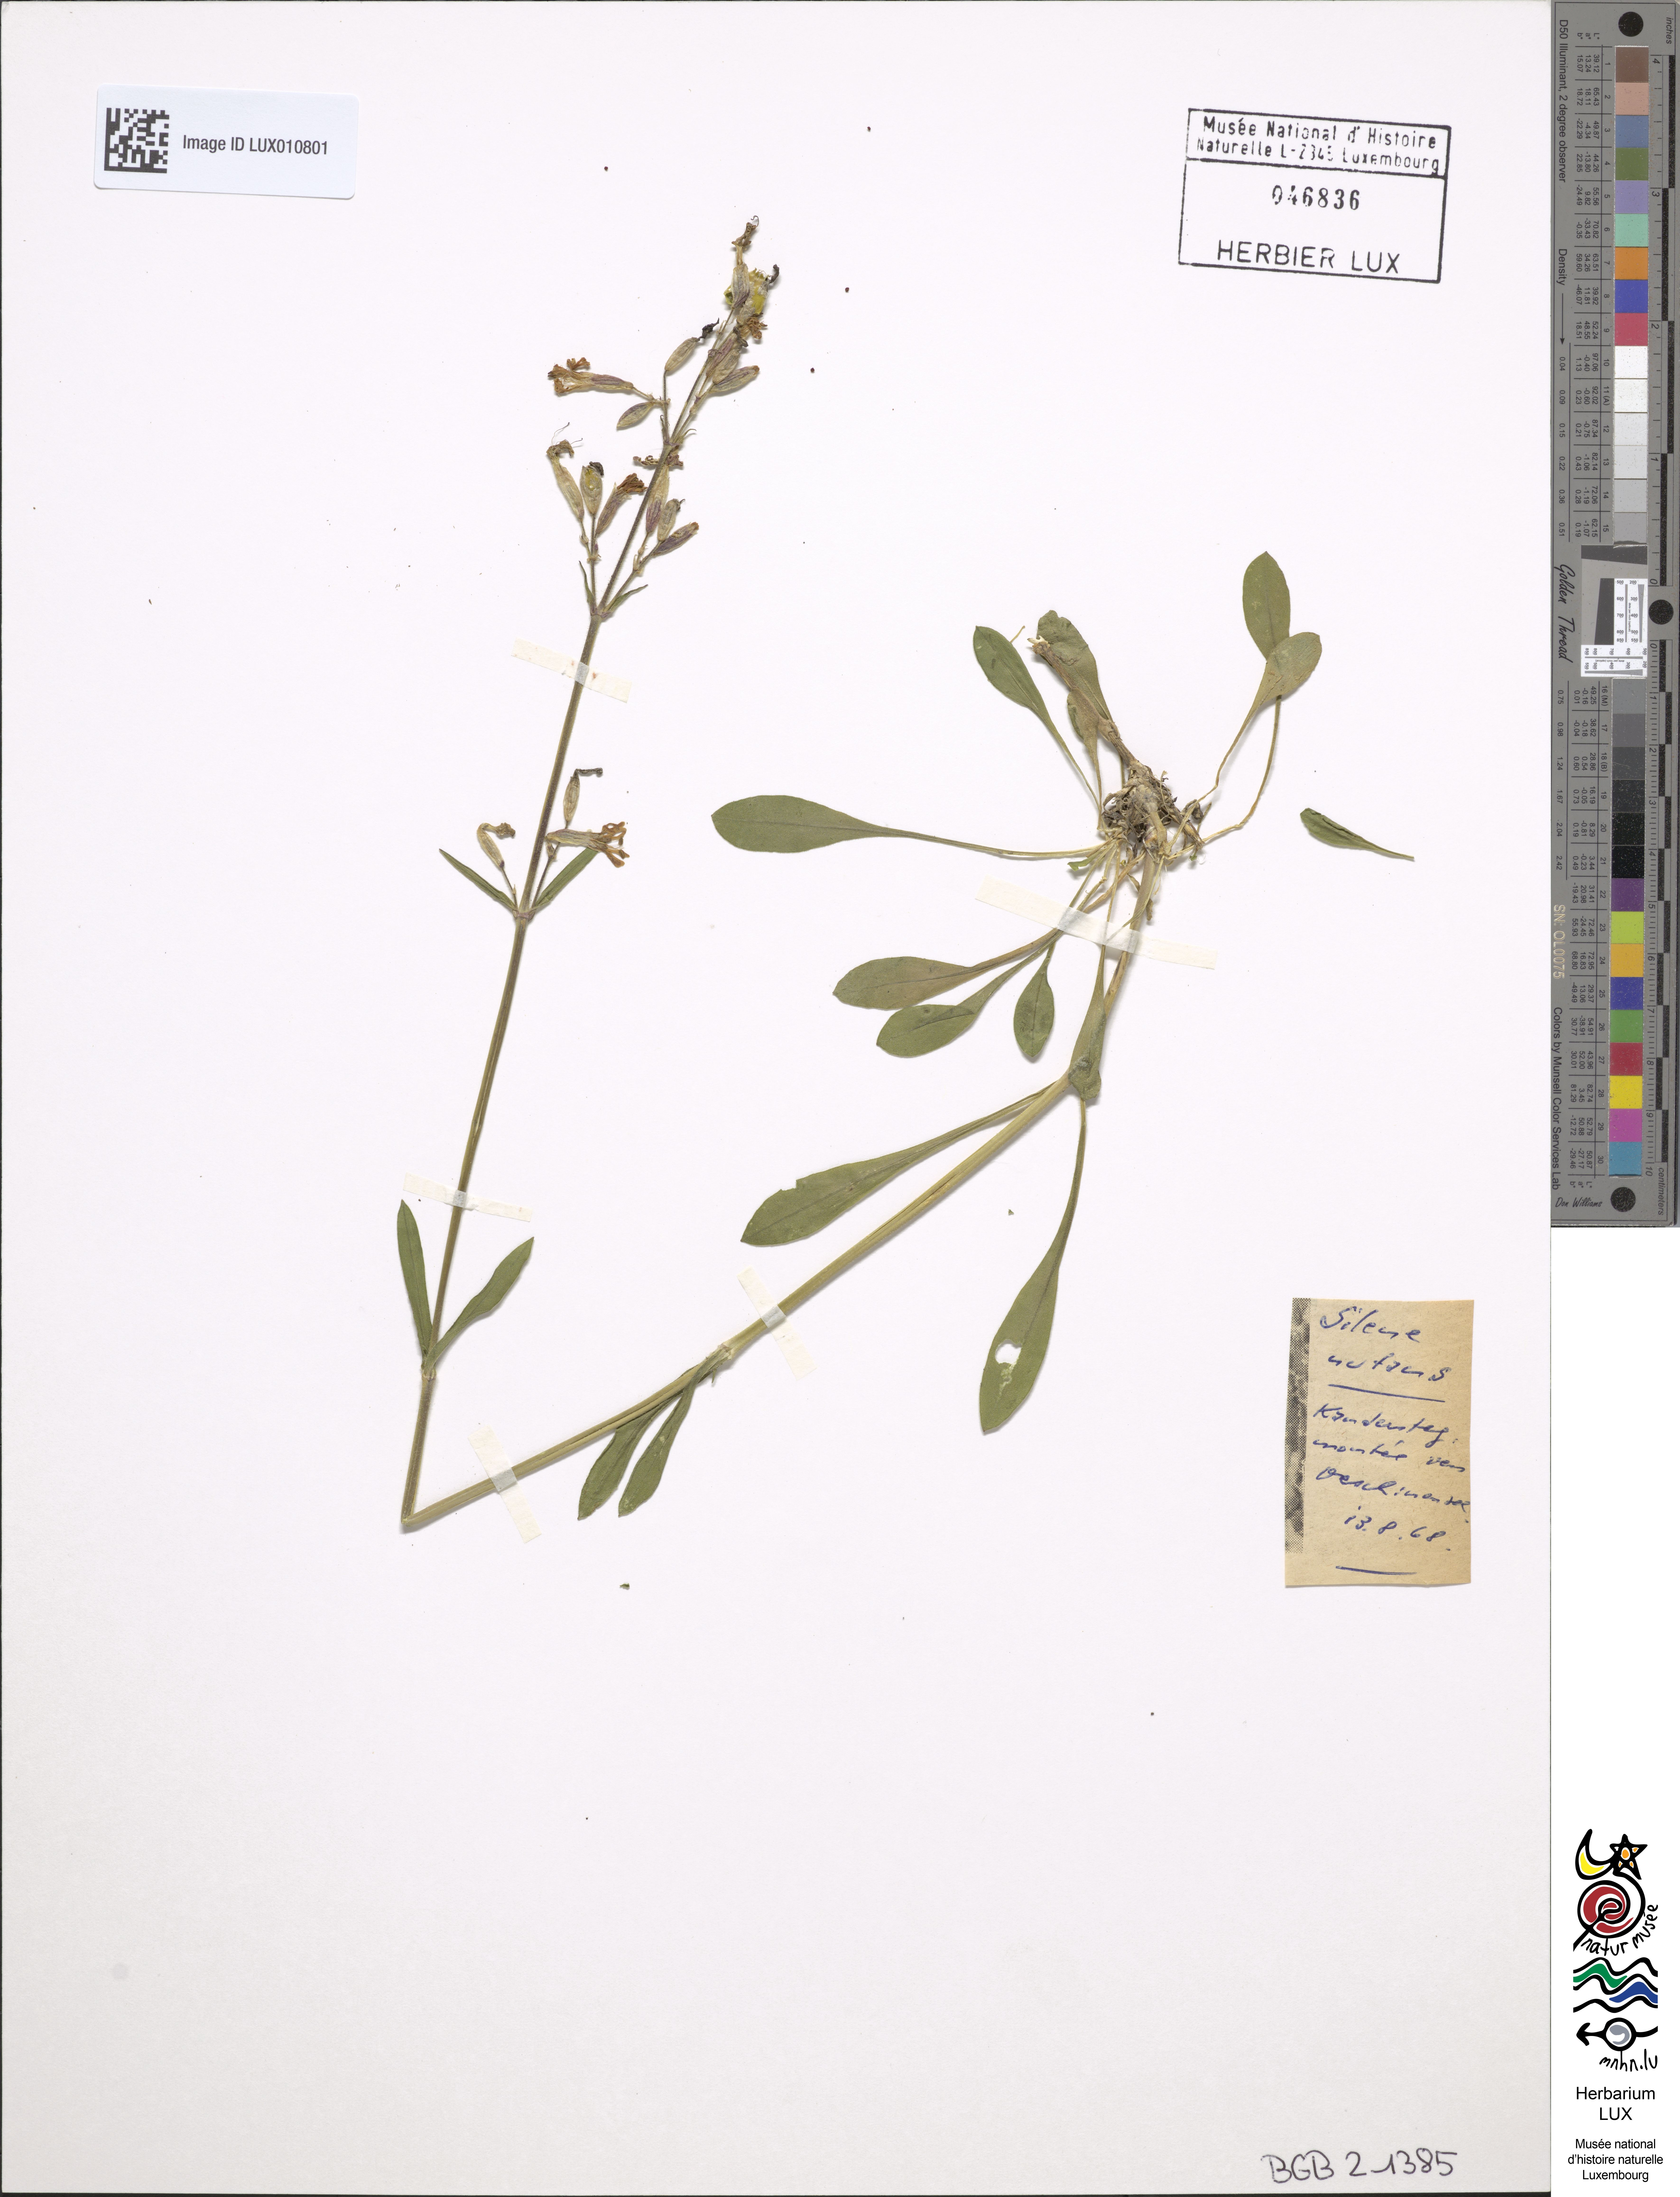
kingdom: Plantae
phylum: Tracheophyta
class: Magnoliopsida
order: Caryophyllales
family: Caryophyllaceae
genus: Silene
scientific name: Silene nutans
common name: Nottingham catchfly
